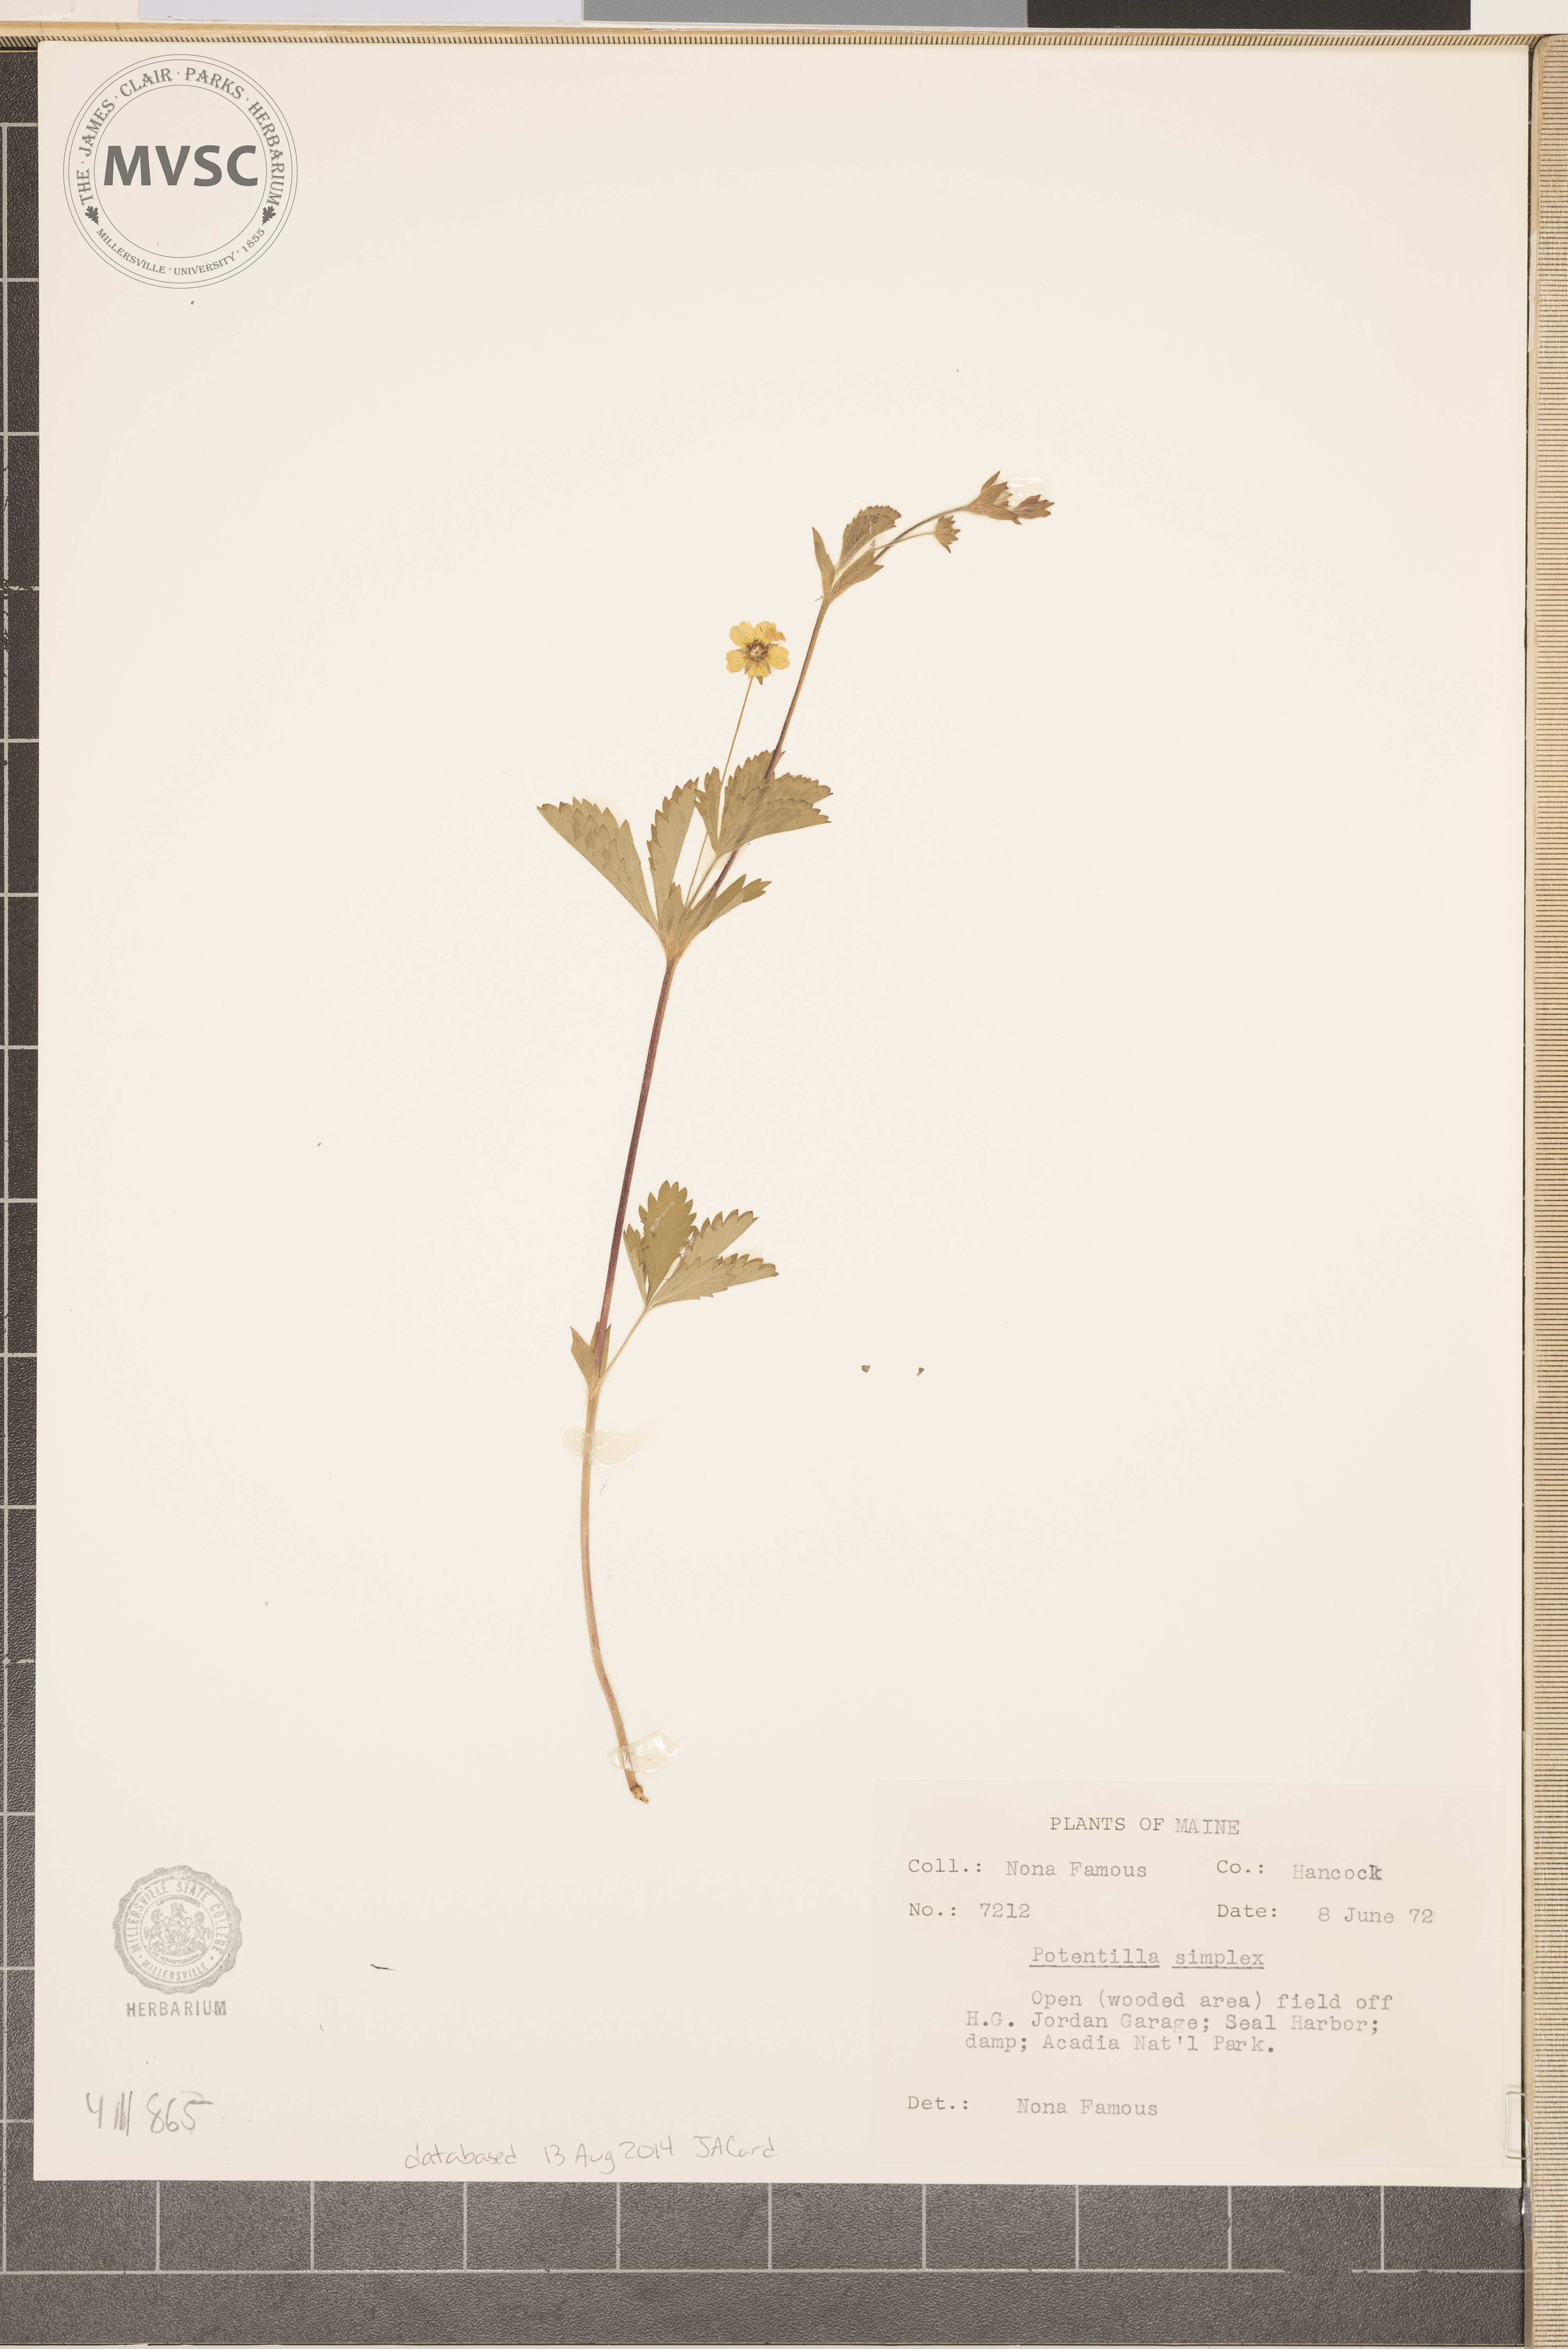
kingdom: Plantae
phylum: Tracheophyta
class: Magnoliopsida
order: Rosales
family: Rosaceae
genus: Potentilla
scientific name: Potentilla simplex
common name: Old field cinquefoil
